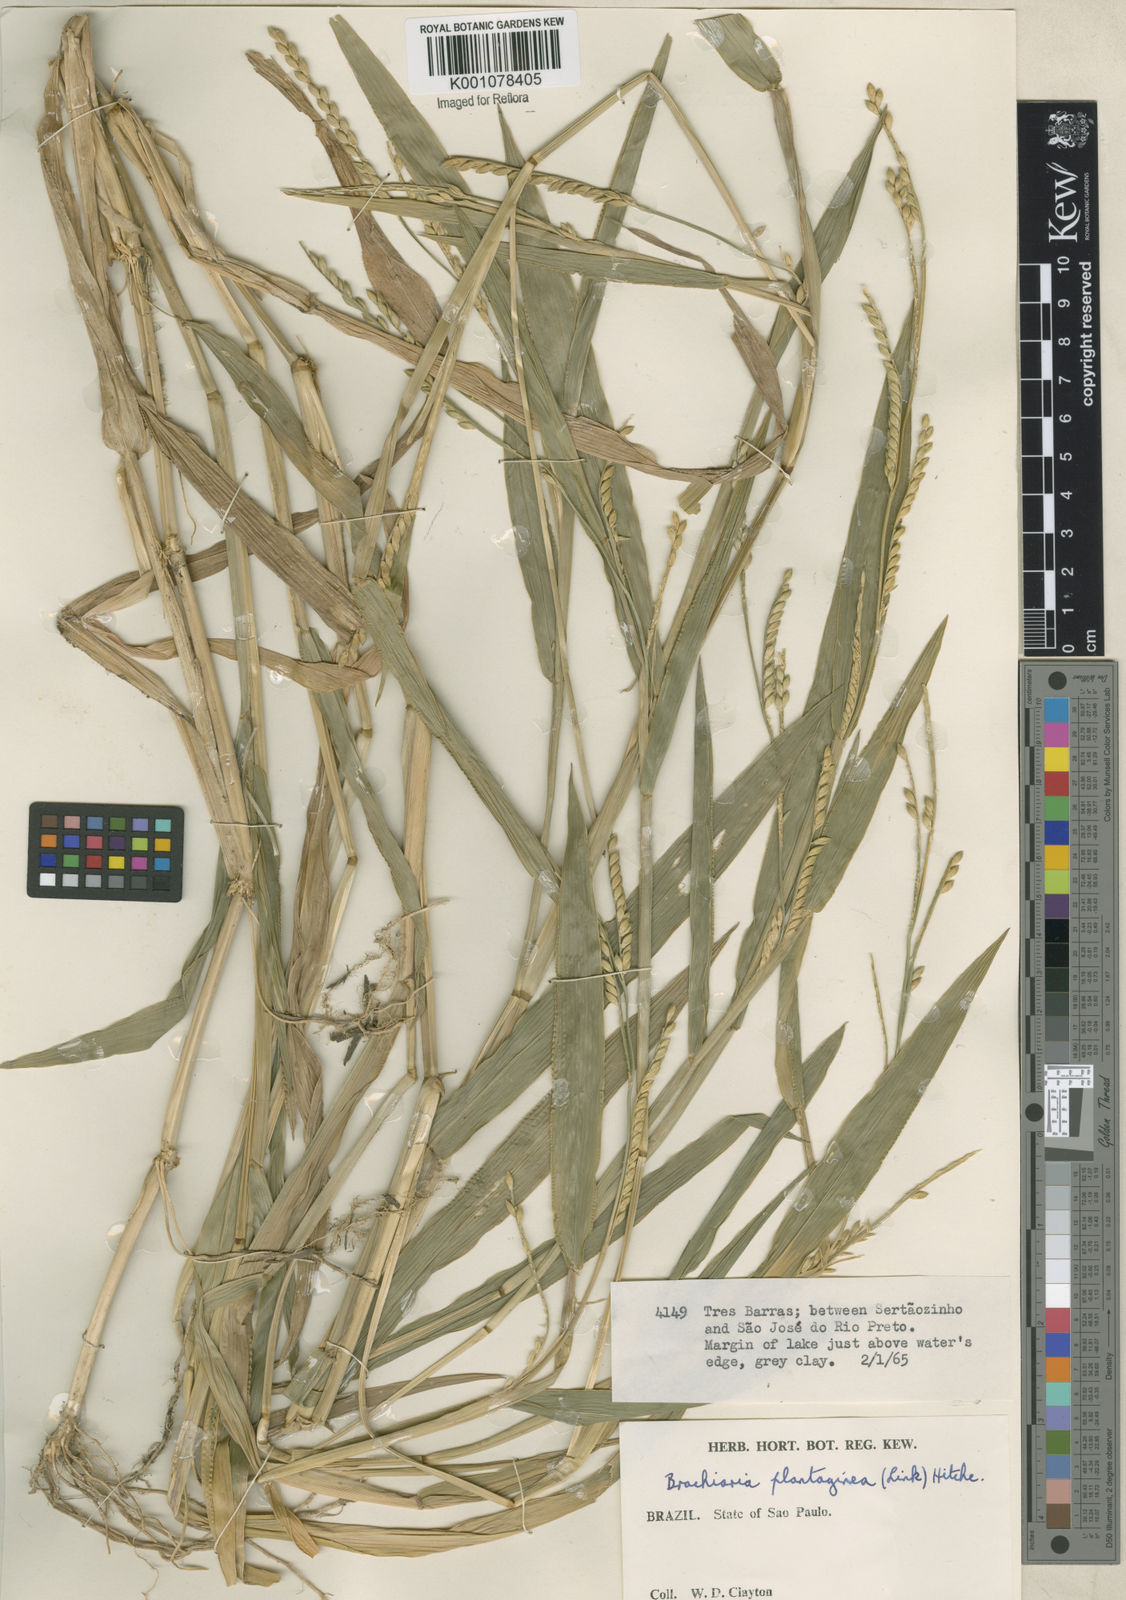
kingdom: Plantae
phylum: Tracheophyta
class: Liliopsida
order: Poales
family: Poaceae
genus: Urochloa
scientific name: Urochloa plantaginea
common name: Plantain signalgrass
